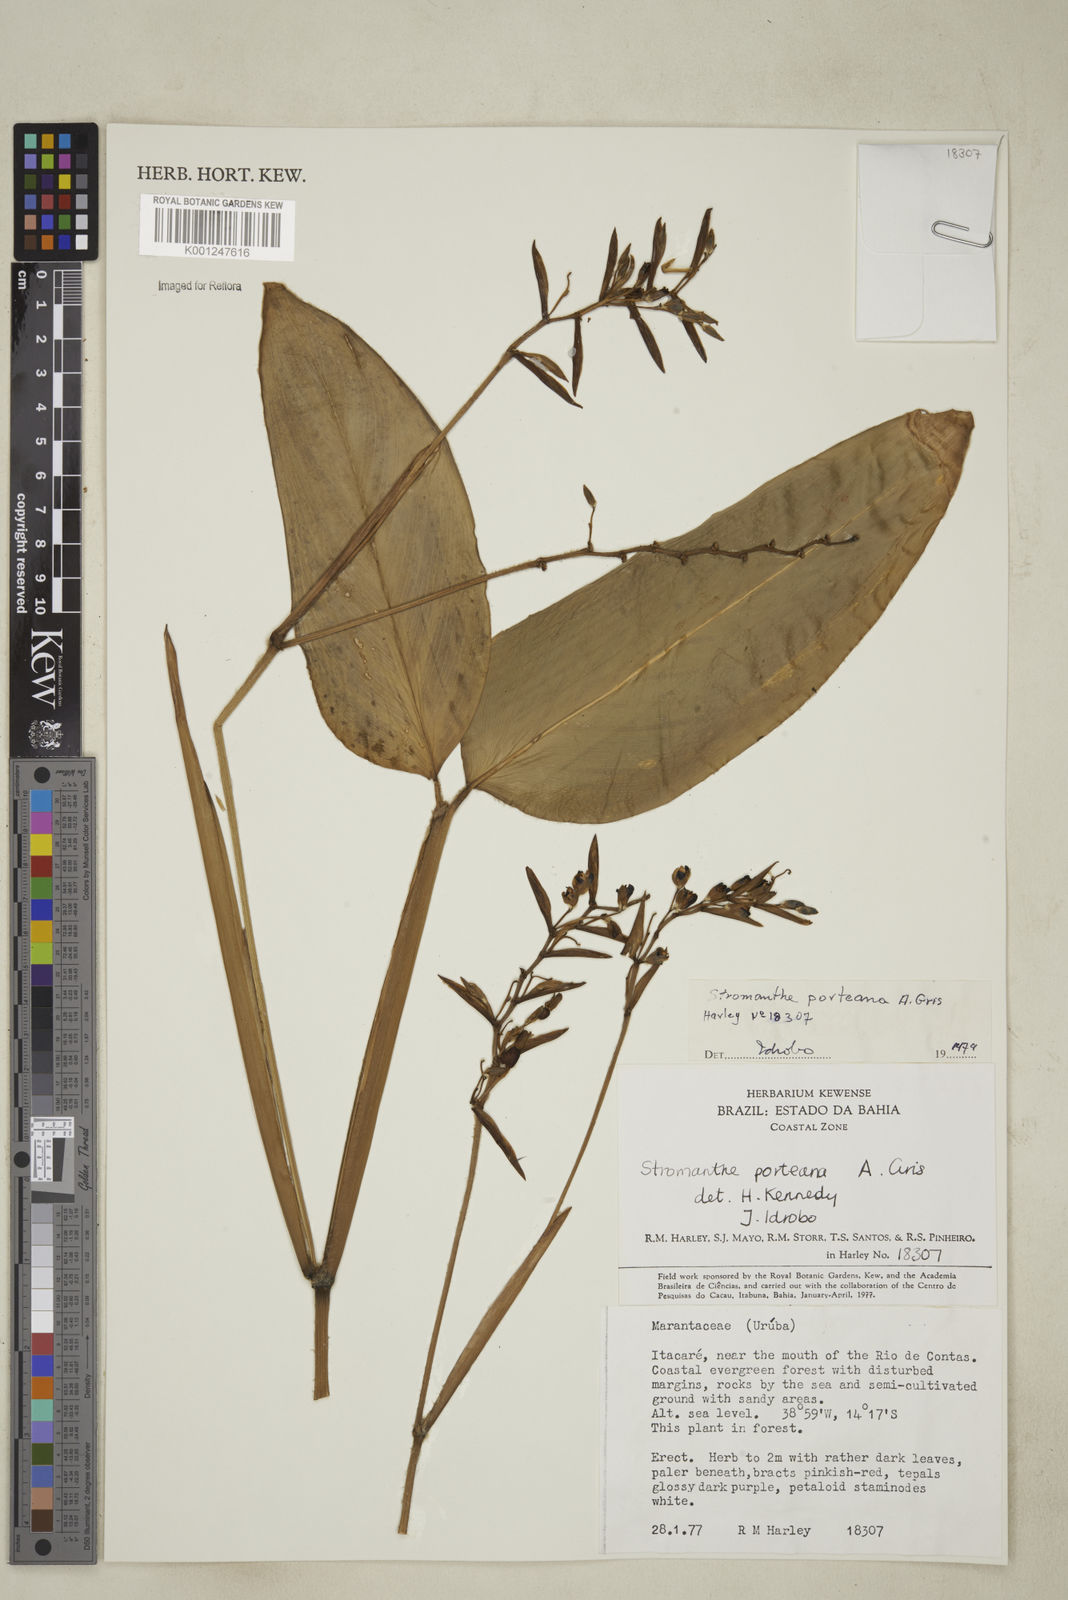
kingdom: Plantae
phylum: Tracheophyta
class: Liliopsida
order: Zingiberales
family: Marantaceae
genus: Stromanthe
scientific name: Stromanthe porteana
